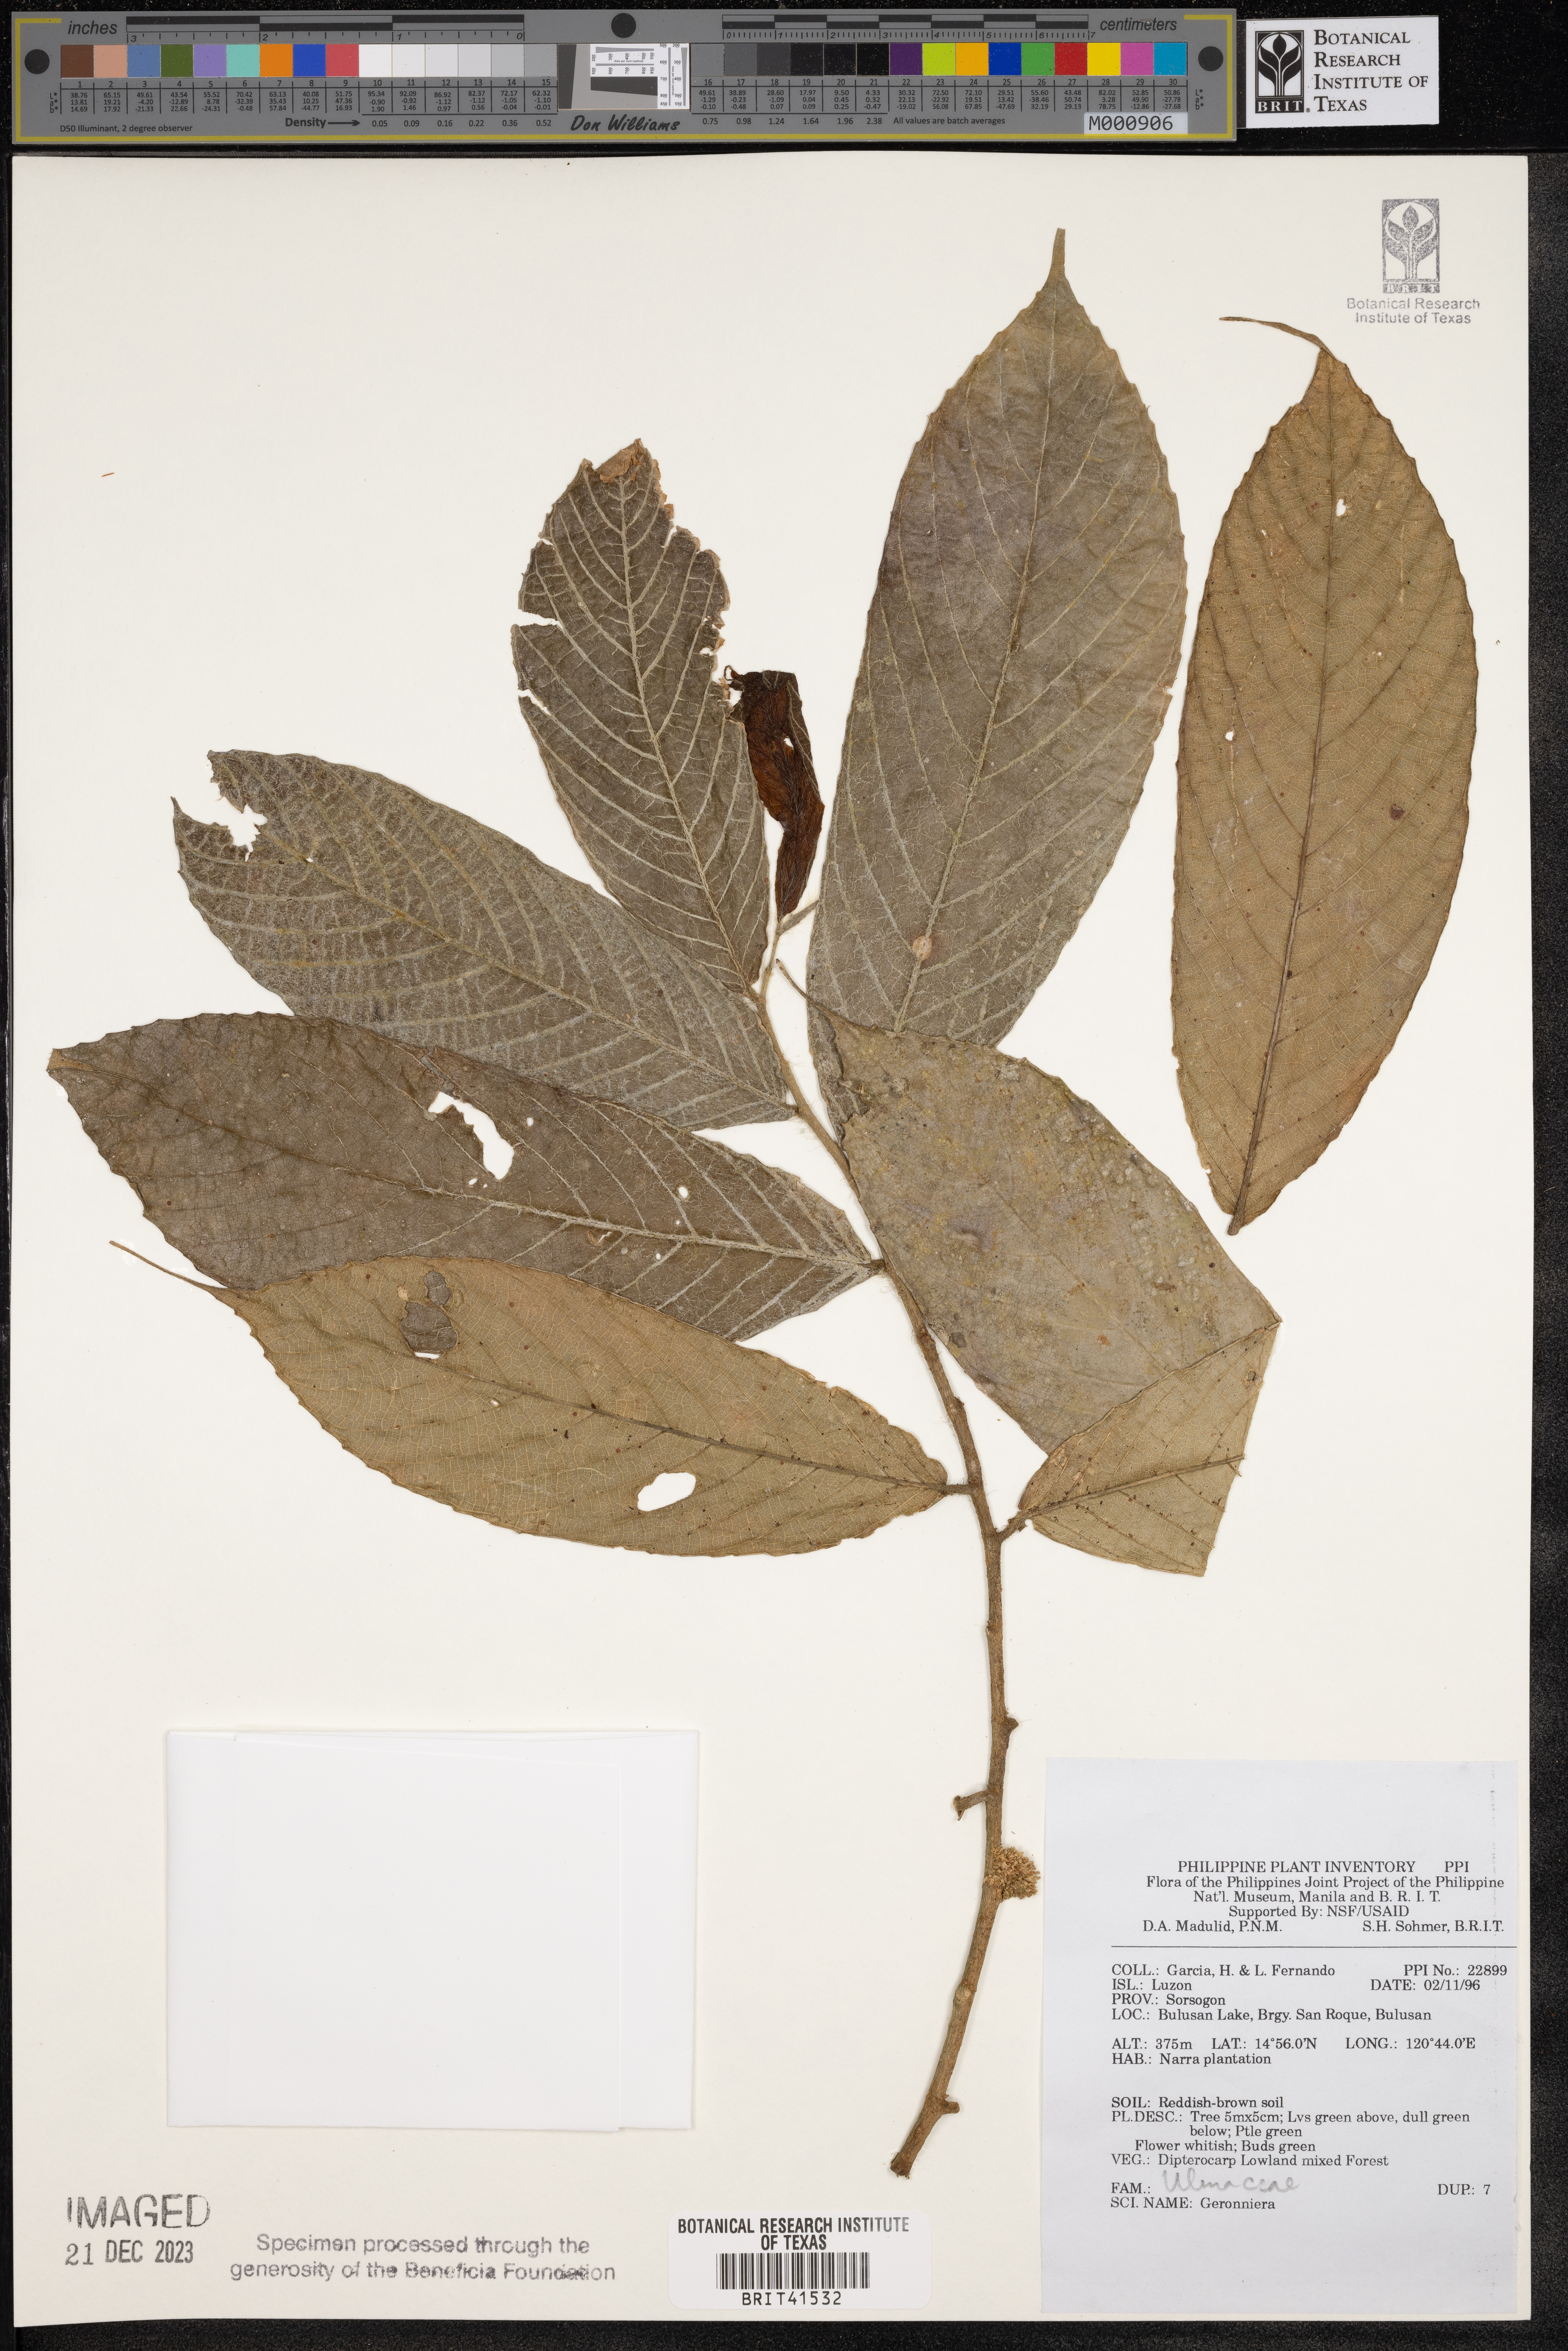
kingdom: Plantae
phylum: Tracheophyta
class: Magnoliopsida
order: Rosales
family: Cannabaceae
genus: Gironniera
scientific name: Gironniera
